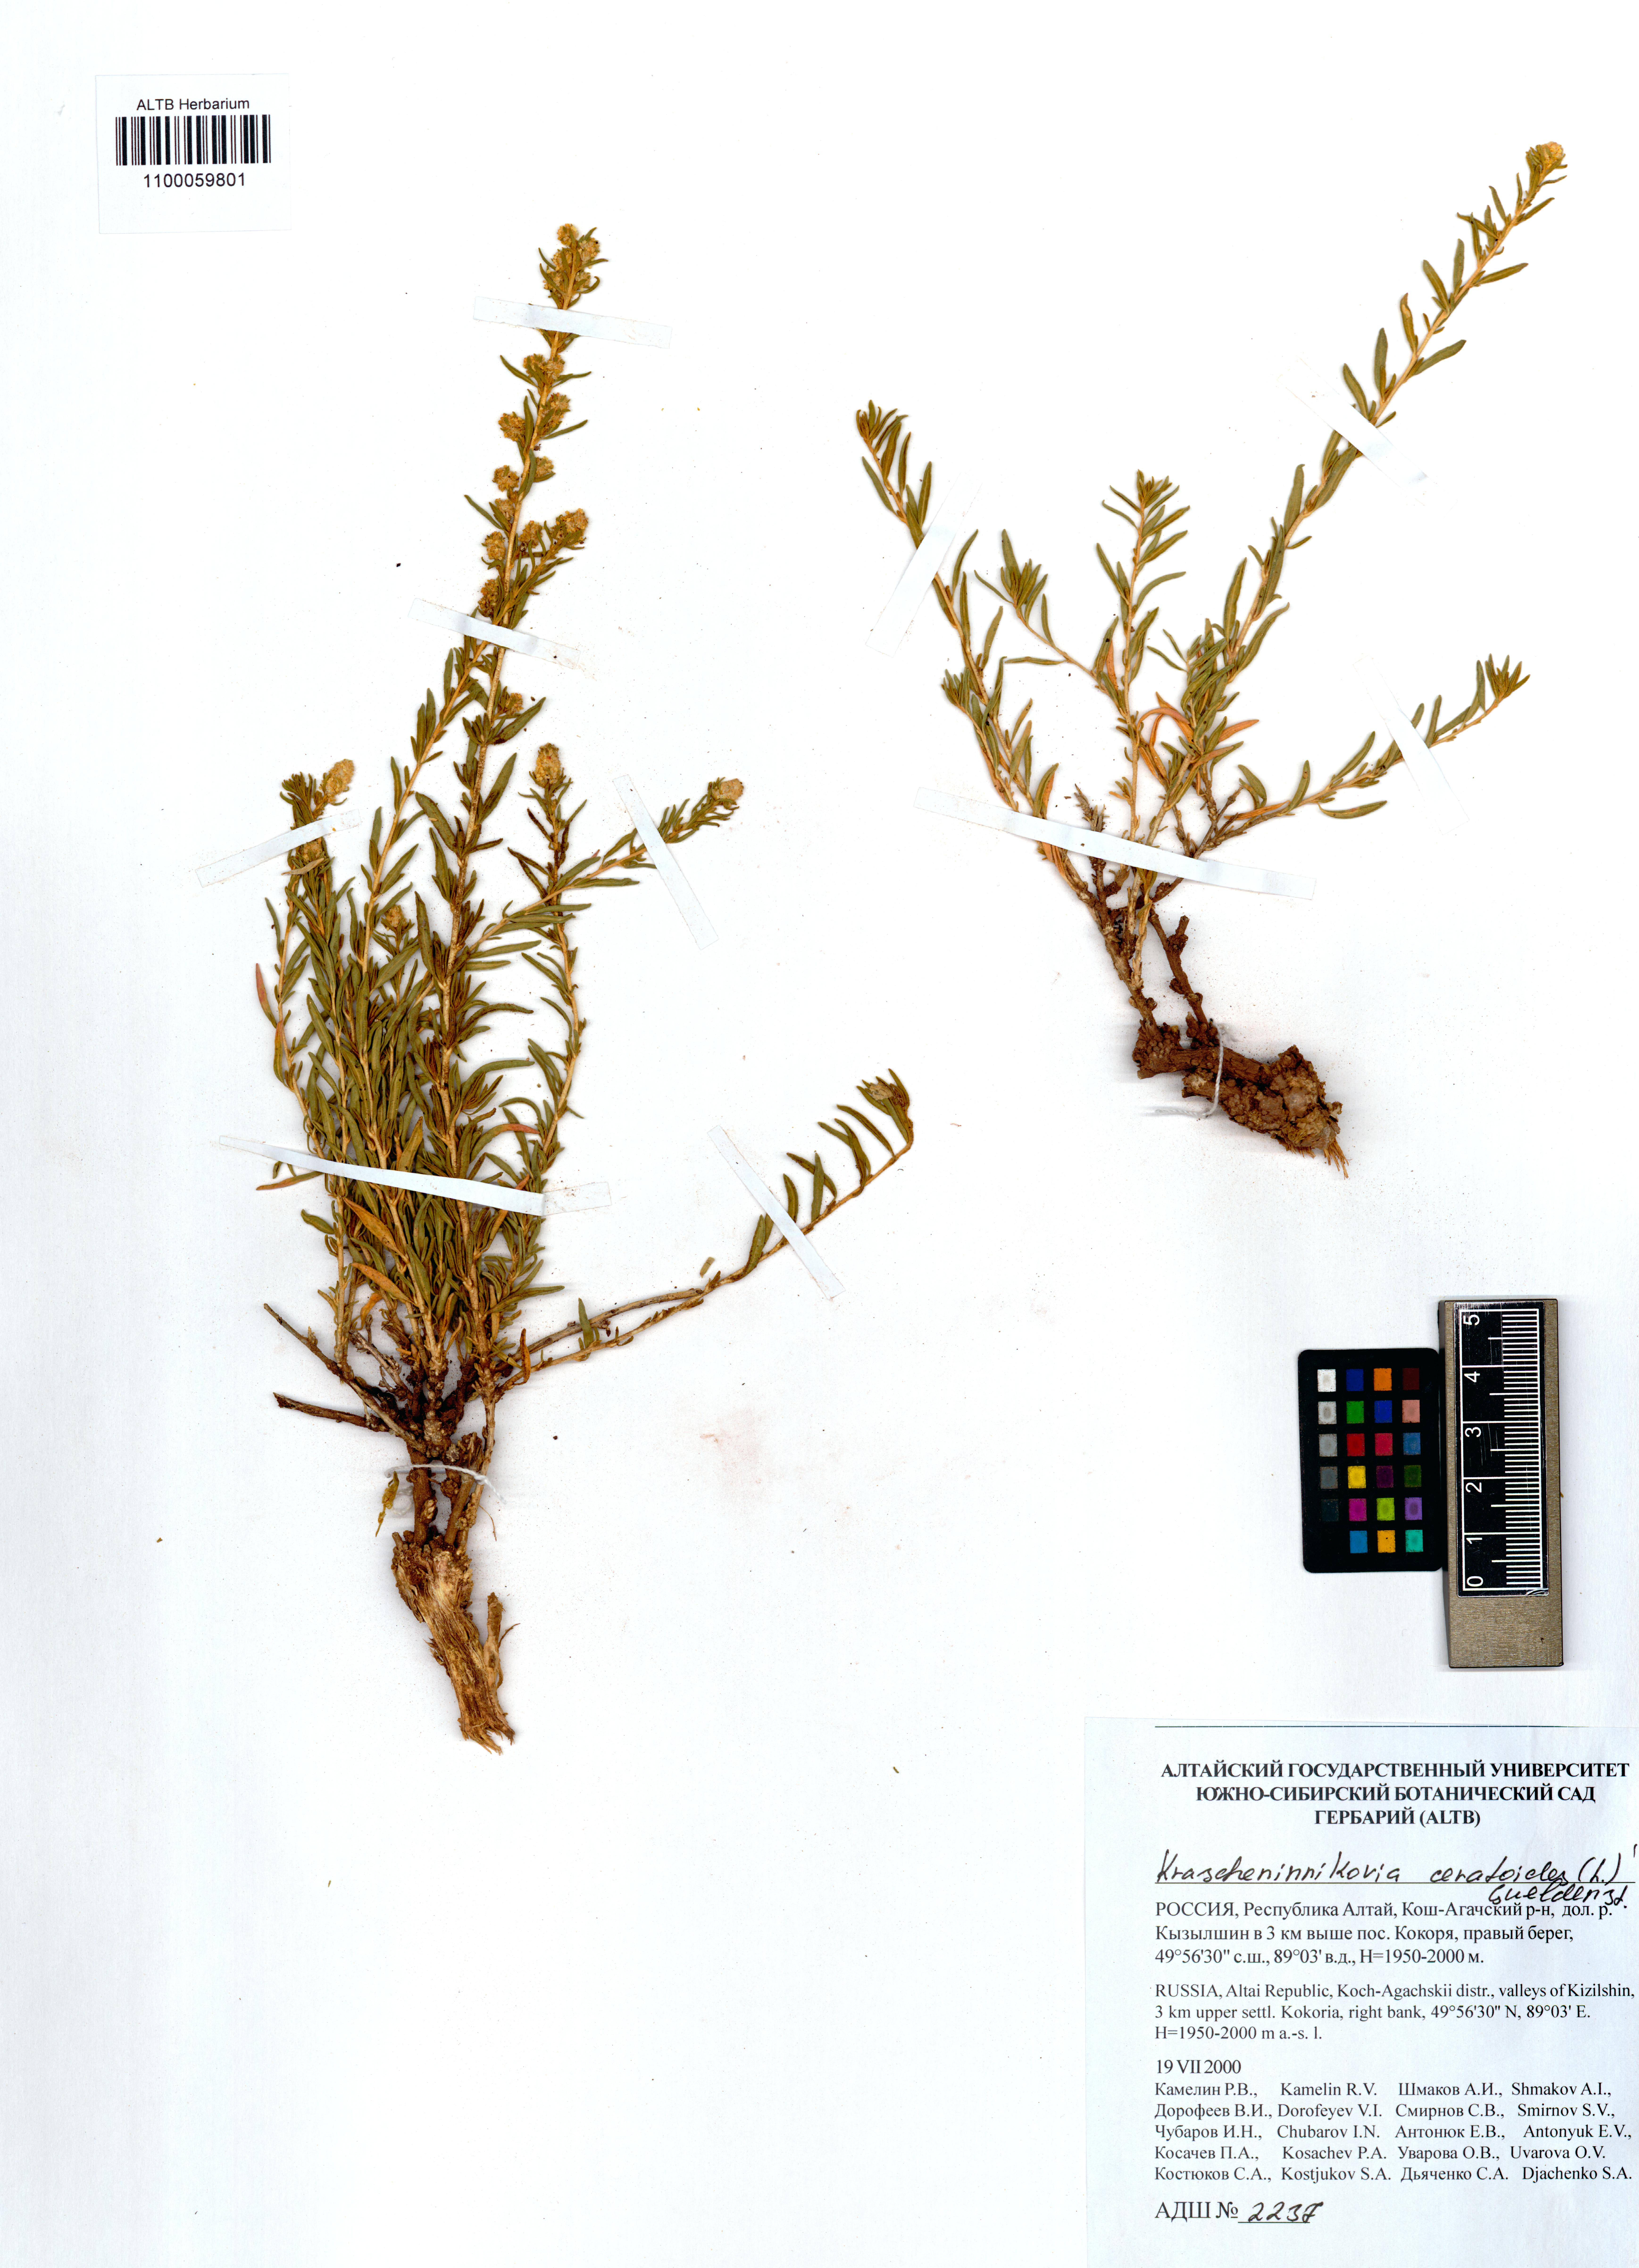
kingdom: Plantae
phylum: Tracheophyta
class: Magnoliopsida
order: Caryophyllales
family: Amaranthaceae
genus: Krascheninnikovia
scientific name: Krascheninnikovia ceratoides
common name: Pamirian winterfat
